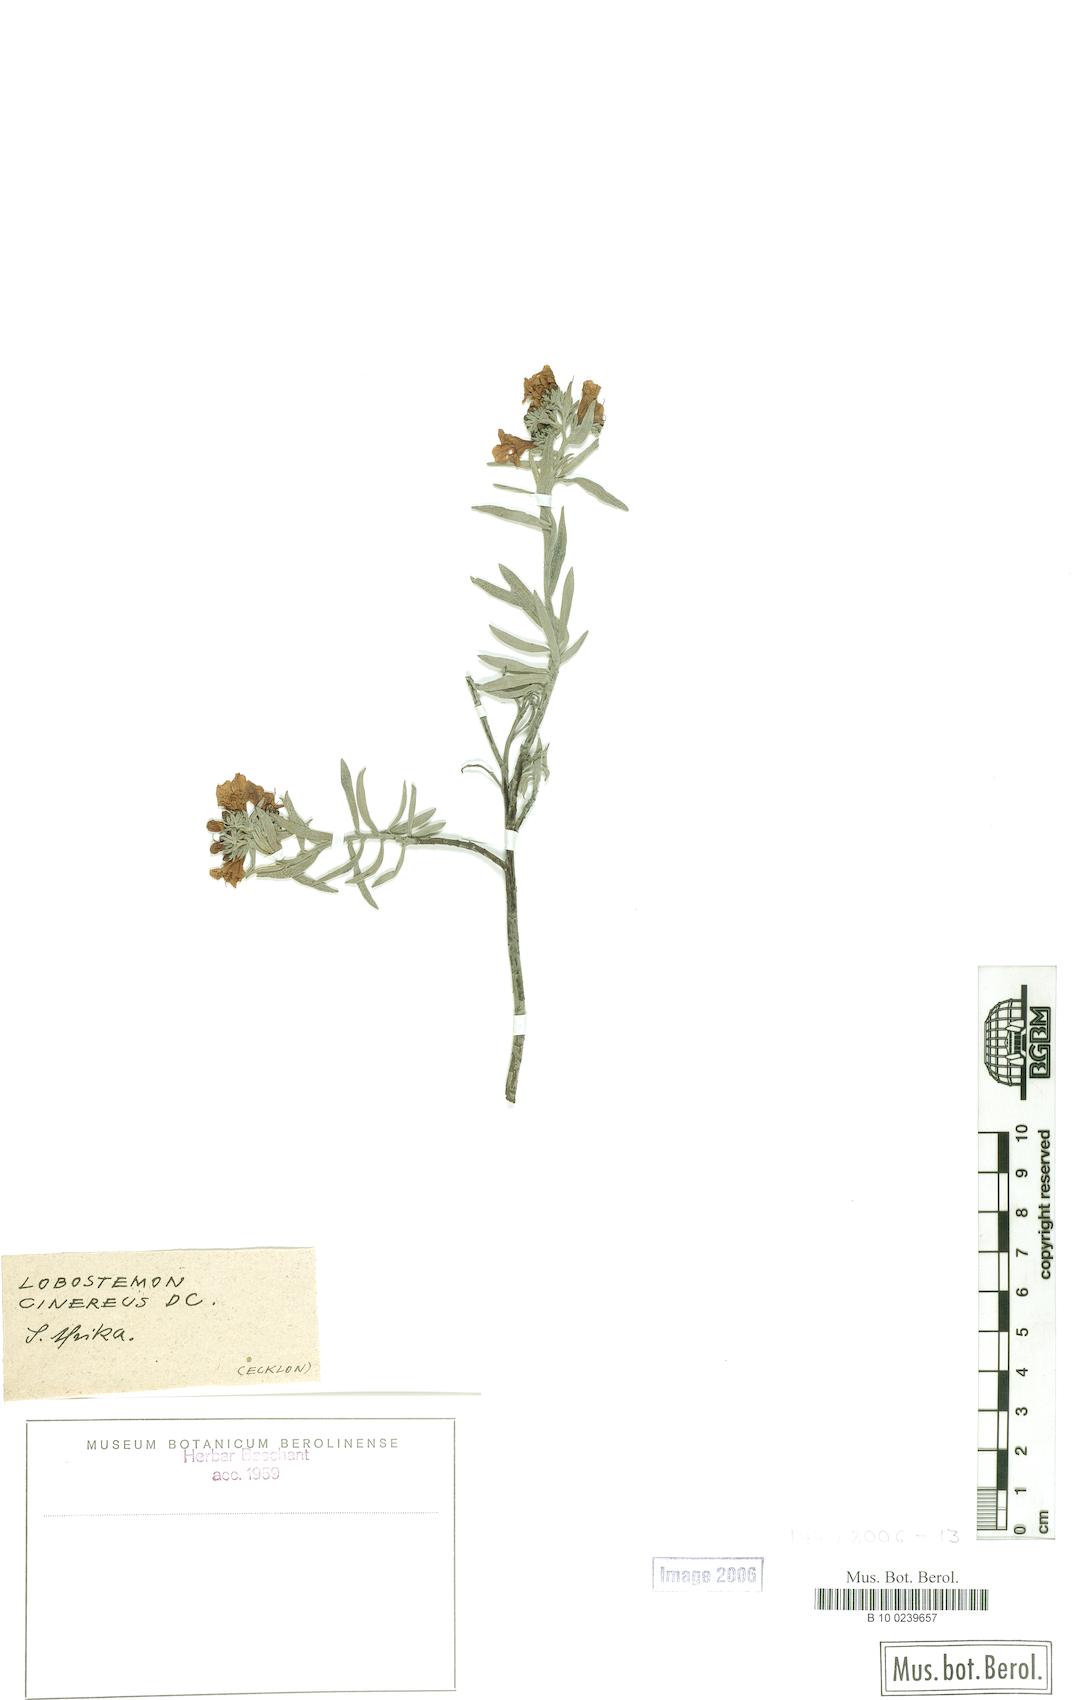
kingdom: Plantae
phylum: Tracheophyta
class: Magnoliopsida
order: Boraginales
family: Boraginaceae
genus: Lobostemon
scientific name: Lobostemon cinereus
